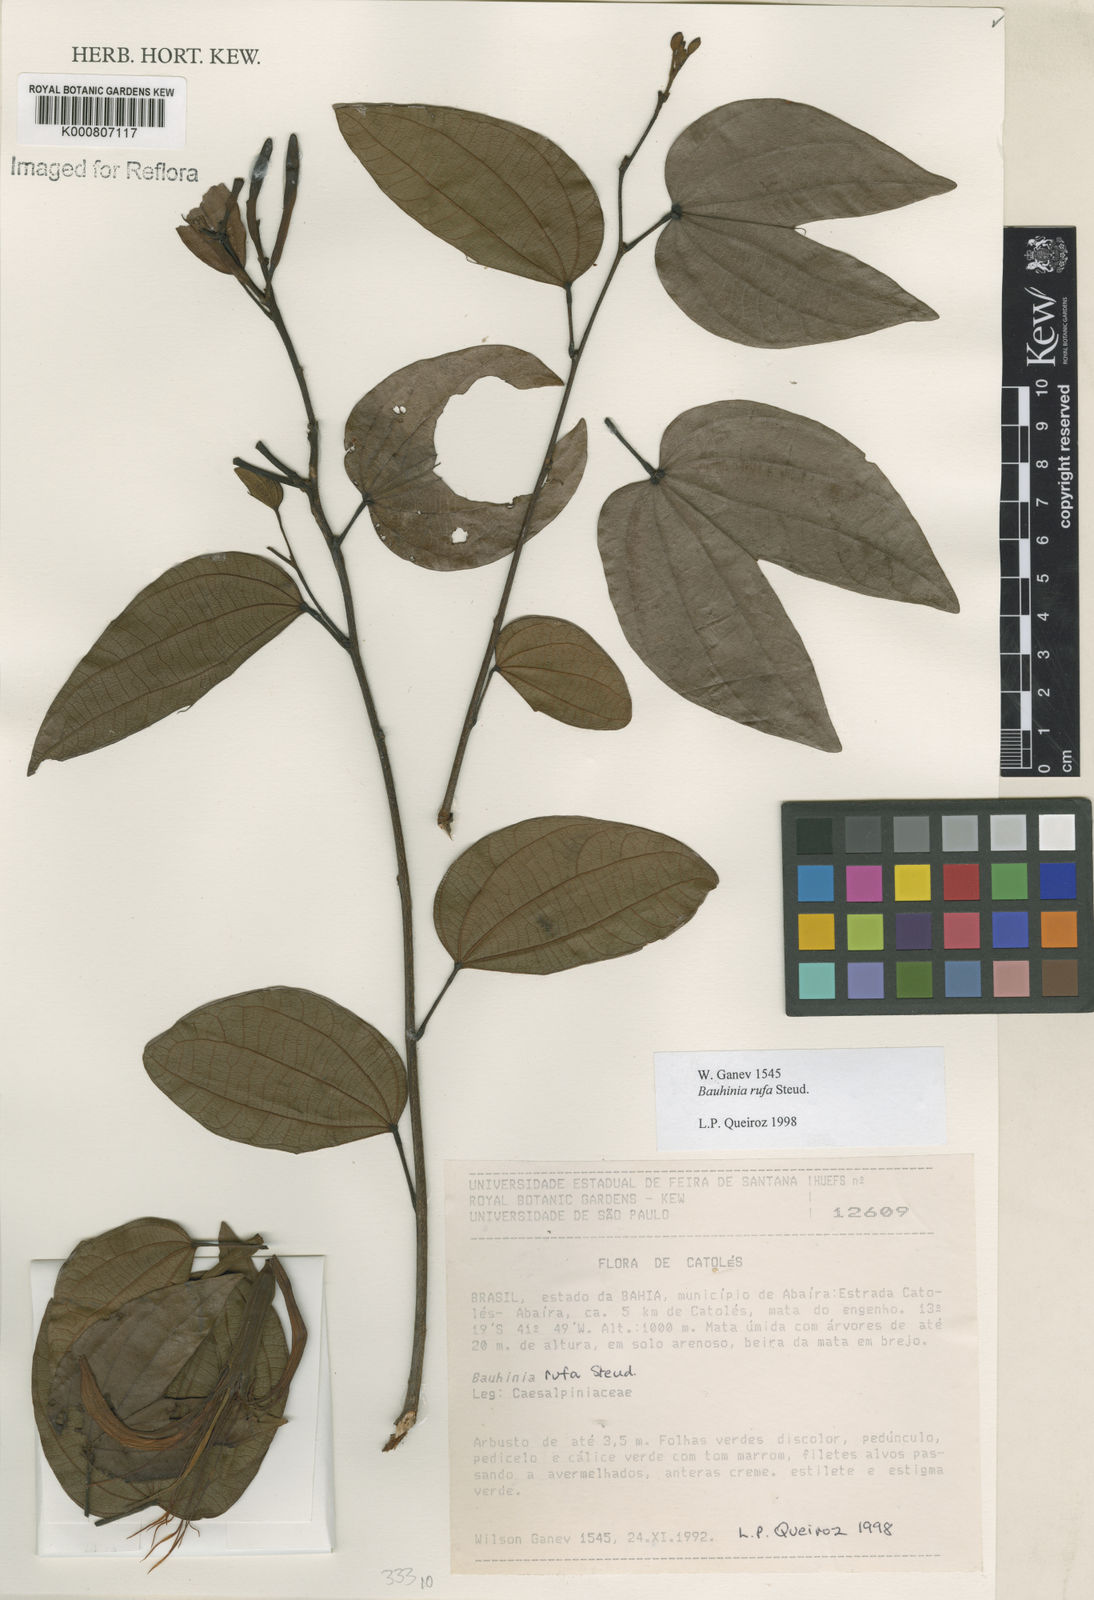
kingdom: Plantae
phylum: Tracheophyta
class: Magnoliopsida
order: Fabales
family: Fabaceae
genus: Bauhinia
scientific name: Bauhinia rufa
